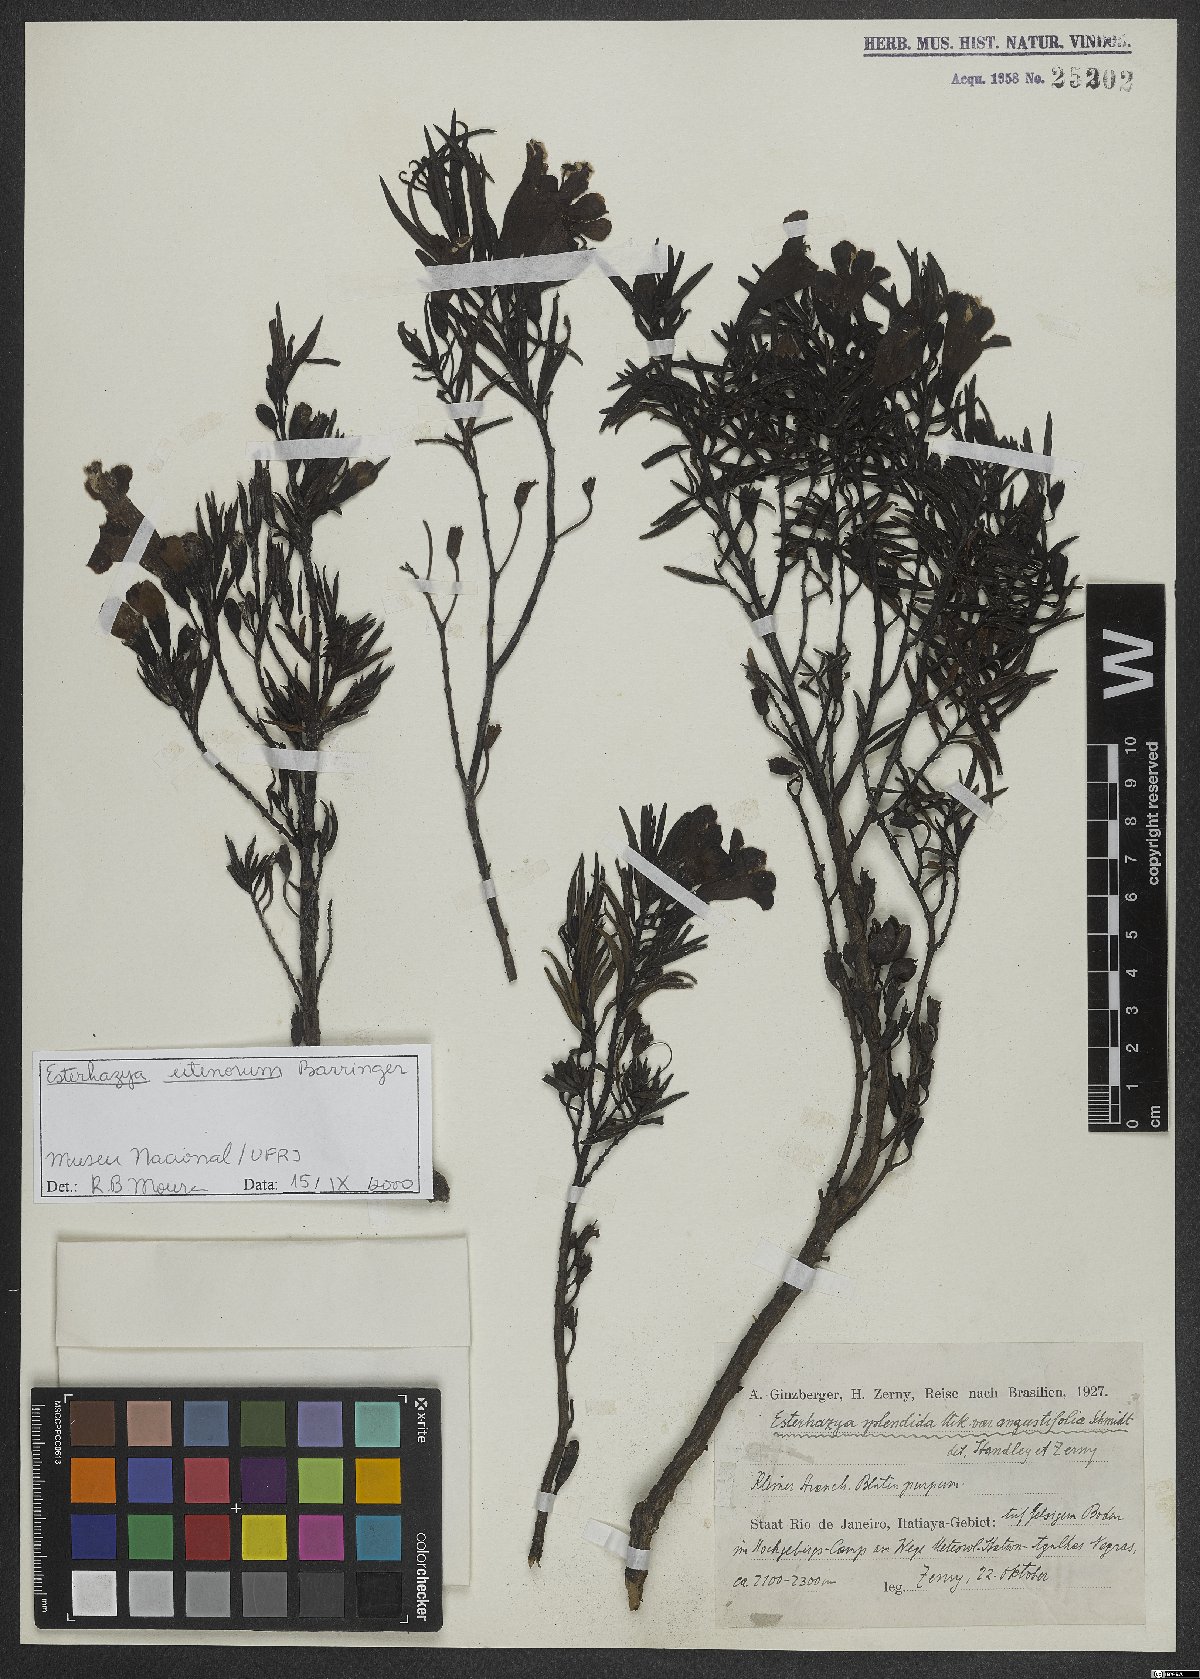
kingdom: Plantae
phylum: Tracheophyta
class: Magnoliopsida
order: Lamiales
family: Orobanchaceae
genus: Esterhazya
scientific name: Esterhazya eitenorum
